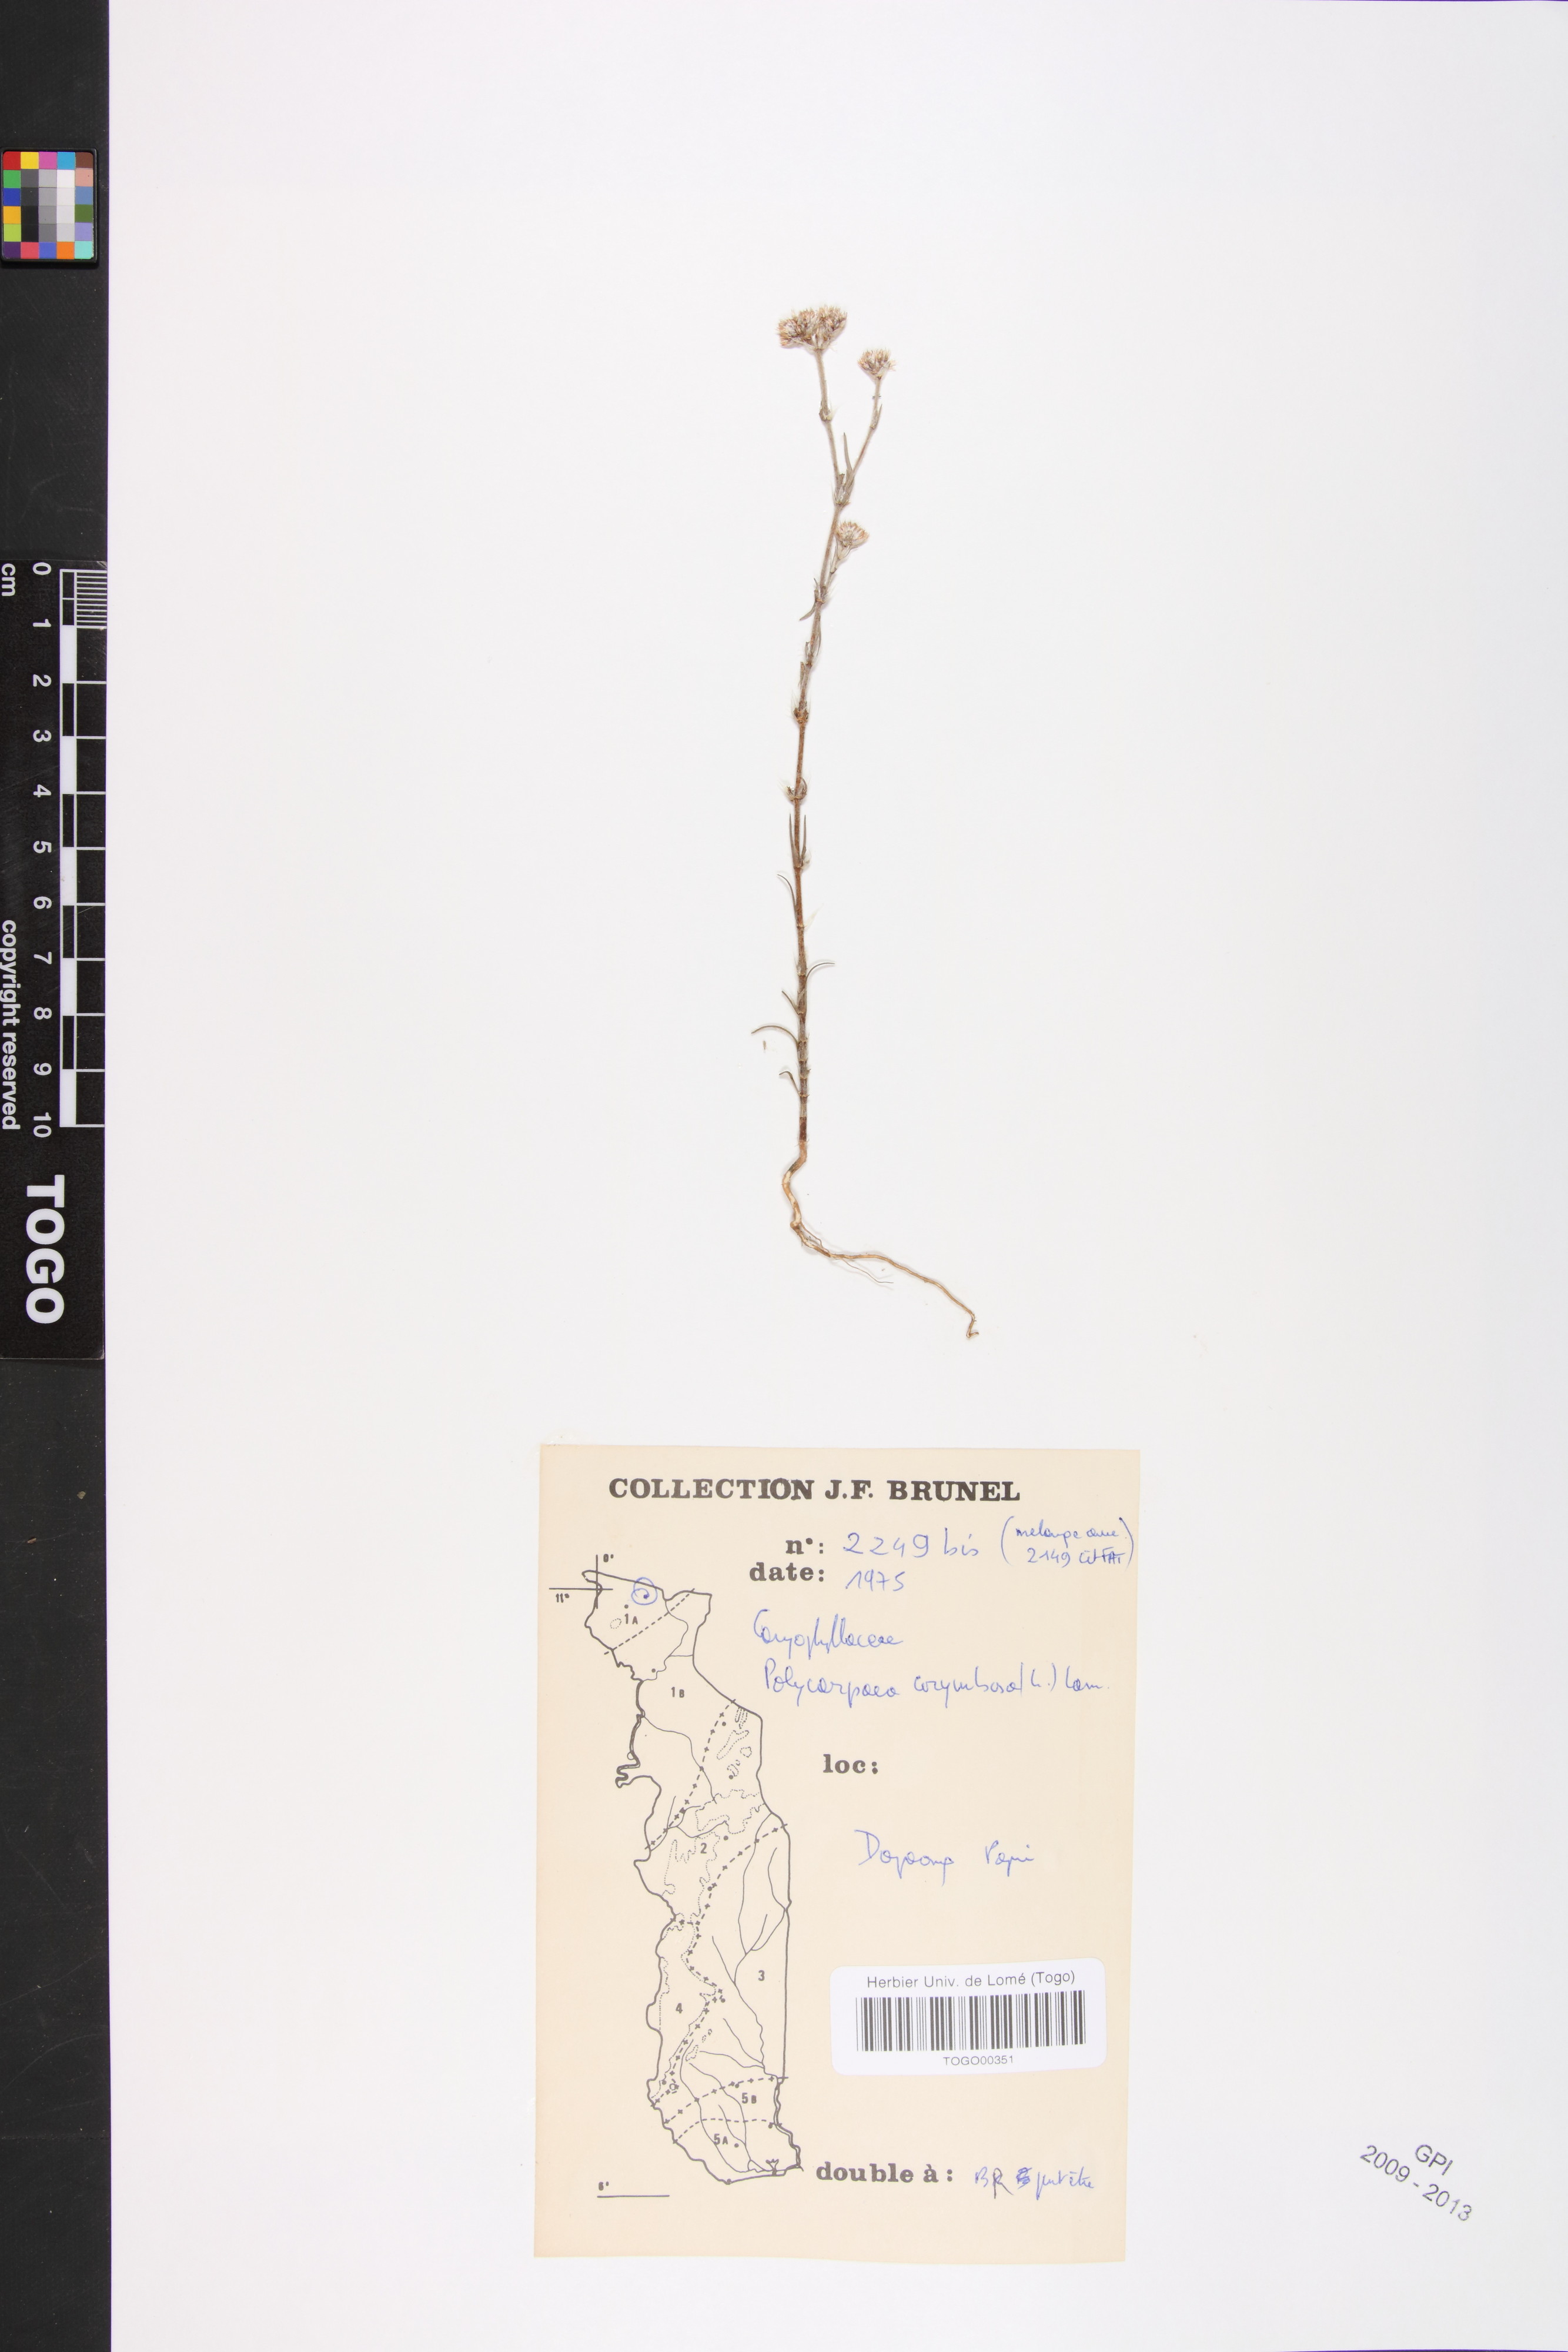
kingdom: Plantae
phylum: Tracheophyta
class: Magnoliopsida
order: Caryophyllales
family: Caryophyllaceae
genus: Polycarpaea
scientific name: Polycarpaea corymbosa
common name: Oldman's cap
